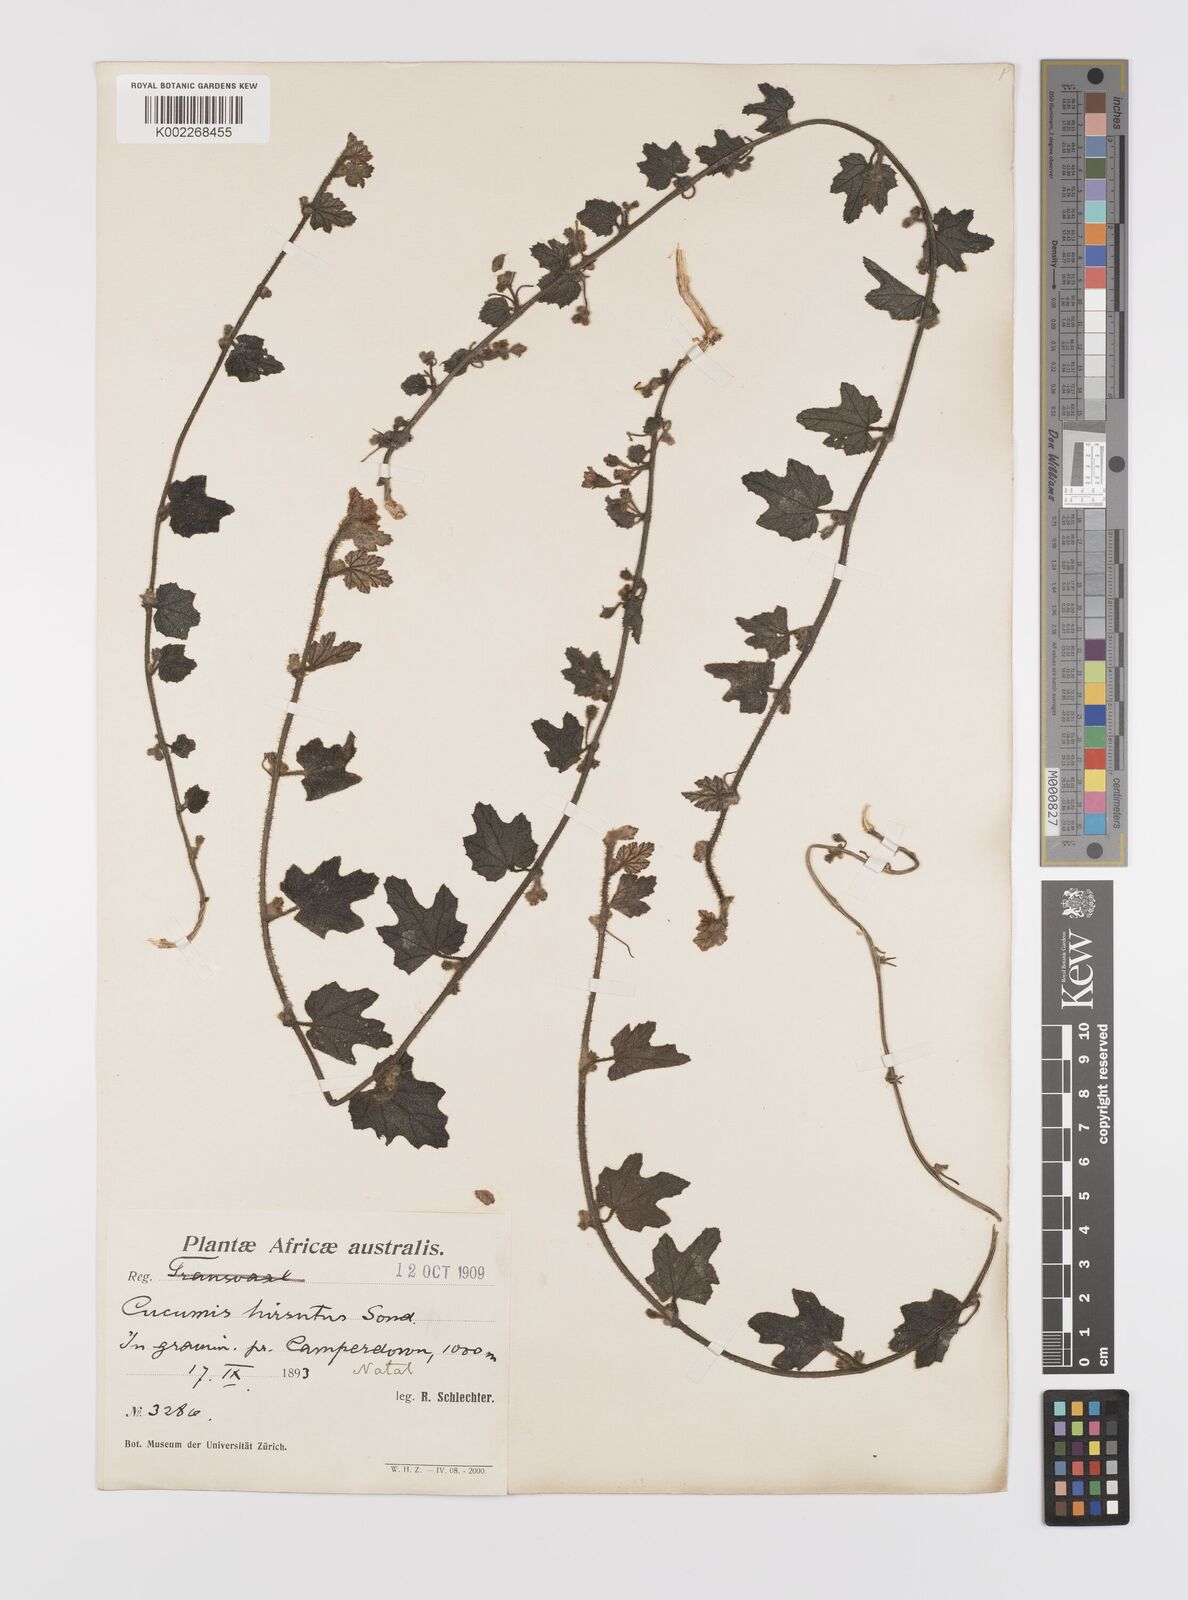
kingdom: Plantae
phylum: Tracheophyta
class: Magnoliopsida
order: Cucurbitales
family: Cucurbitaceae
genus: Cucumis
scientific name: Cucumis hirsutus
